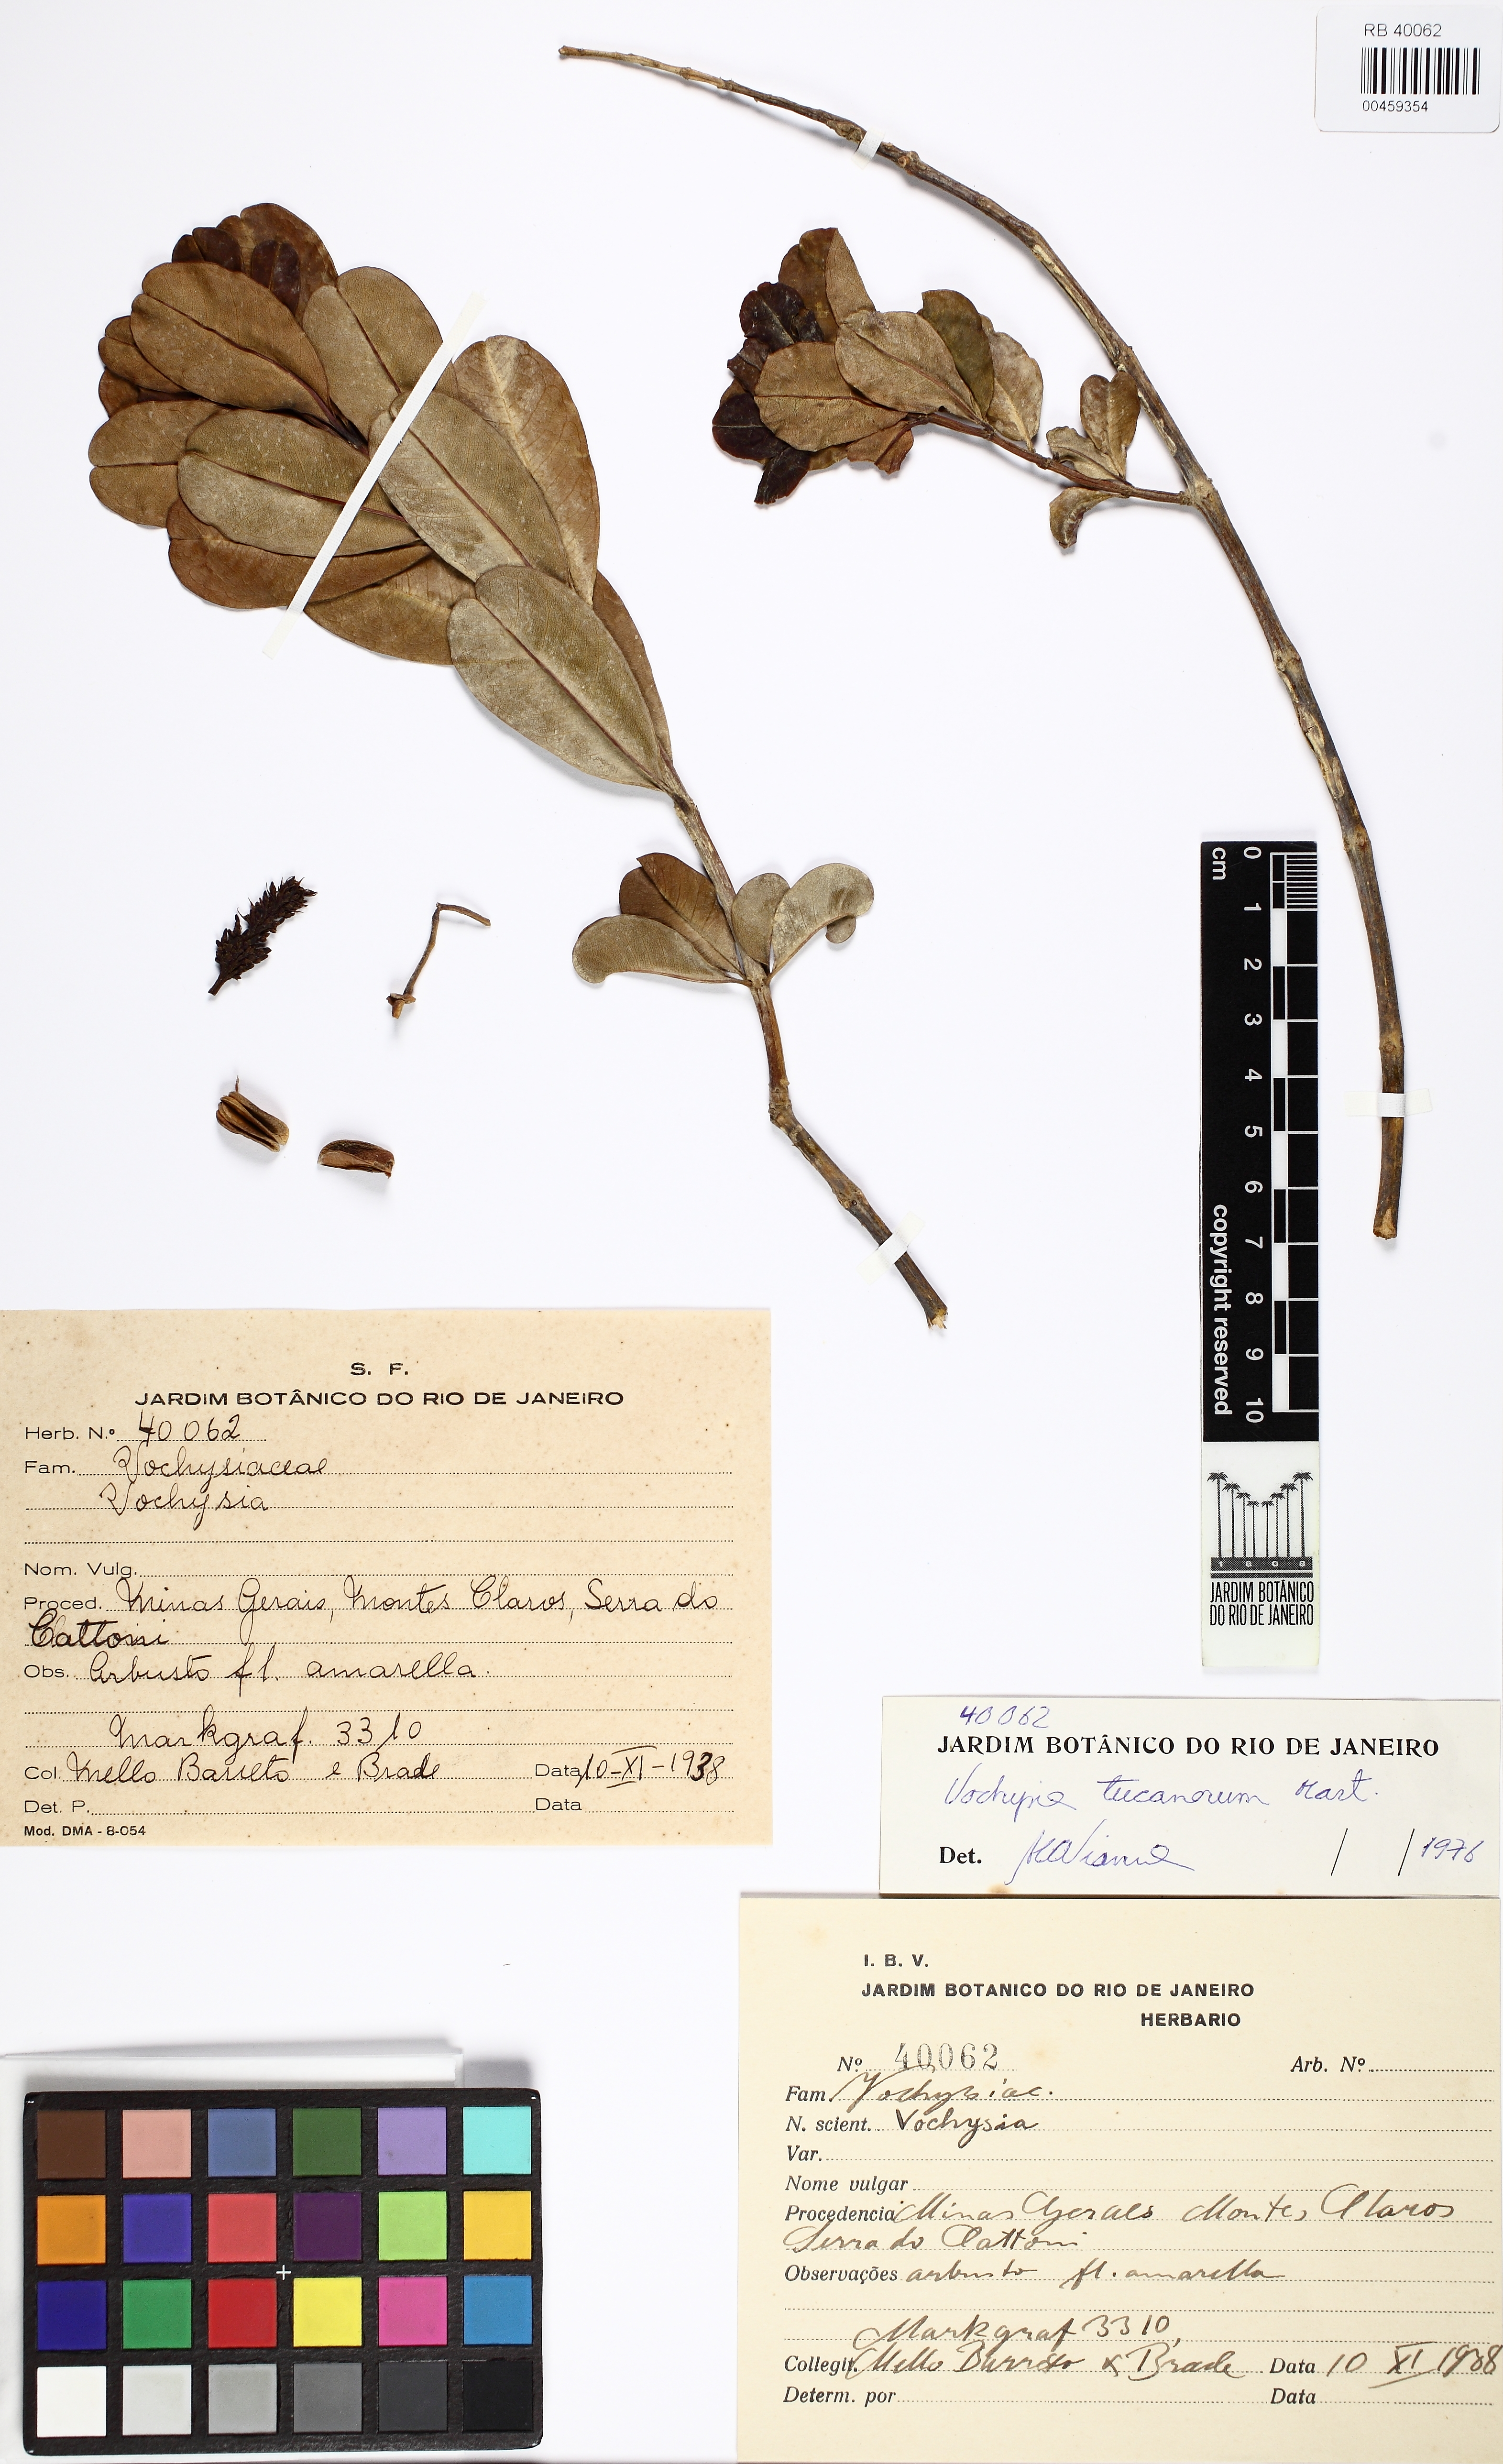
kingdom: Plantae
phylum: Tracheophyta
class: Magnoliopsida
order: Myrtales
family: Vochysiaceae
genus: Vochysia
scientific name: Vochysia tucanorum
